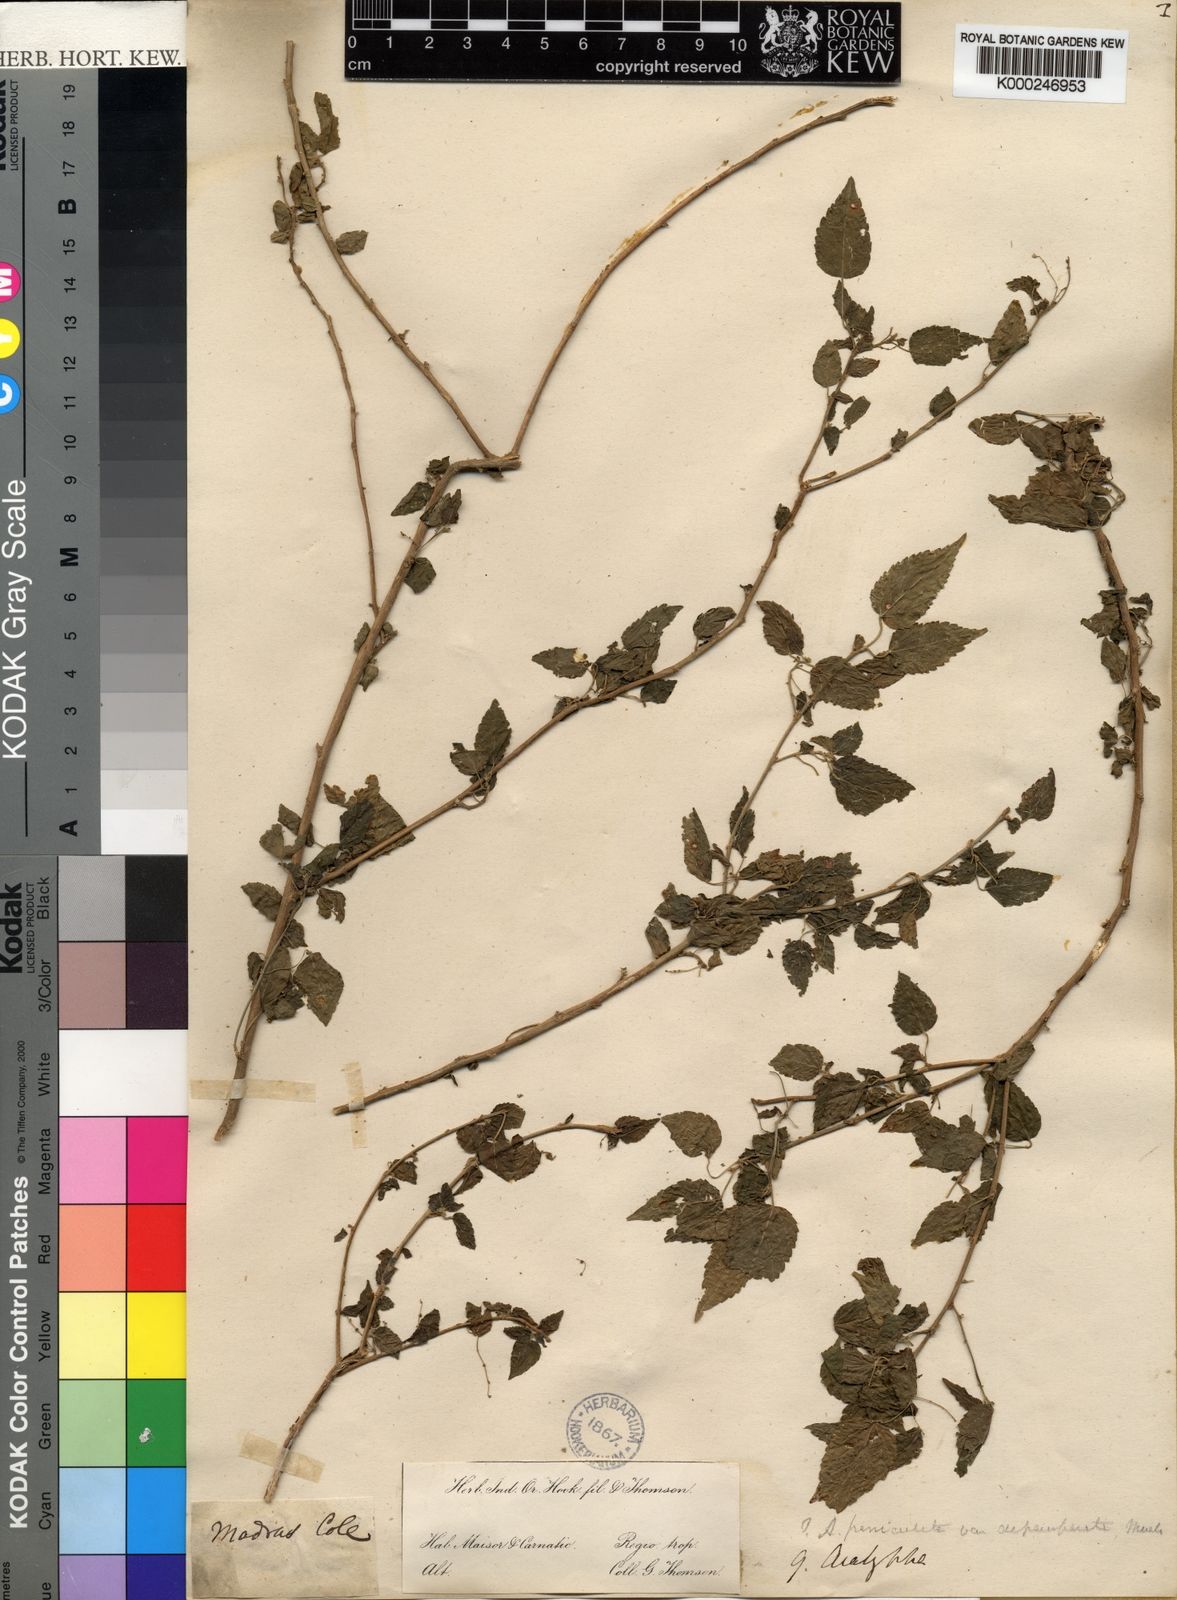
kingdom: Plantae
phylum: Tracheophyta
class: Magnoliopsida
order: Malpighiales
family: Euphorbiaceae
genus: Acalypha
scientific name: Acalypha paniculata
